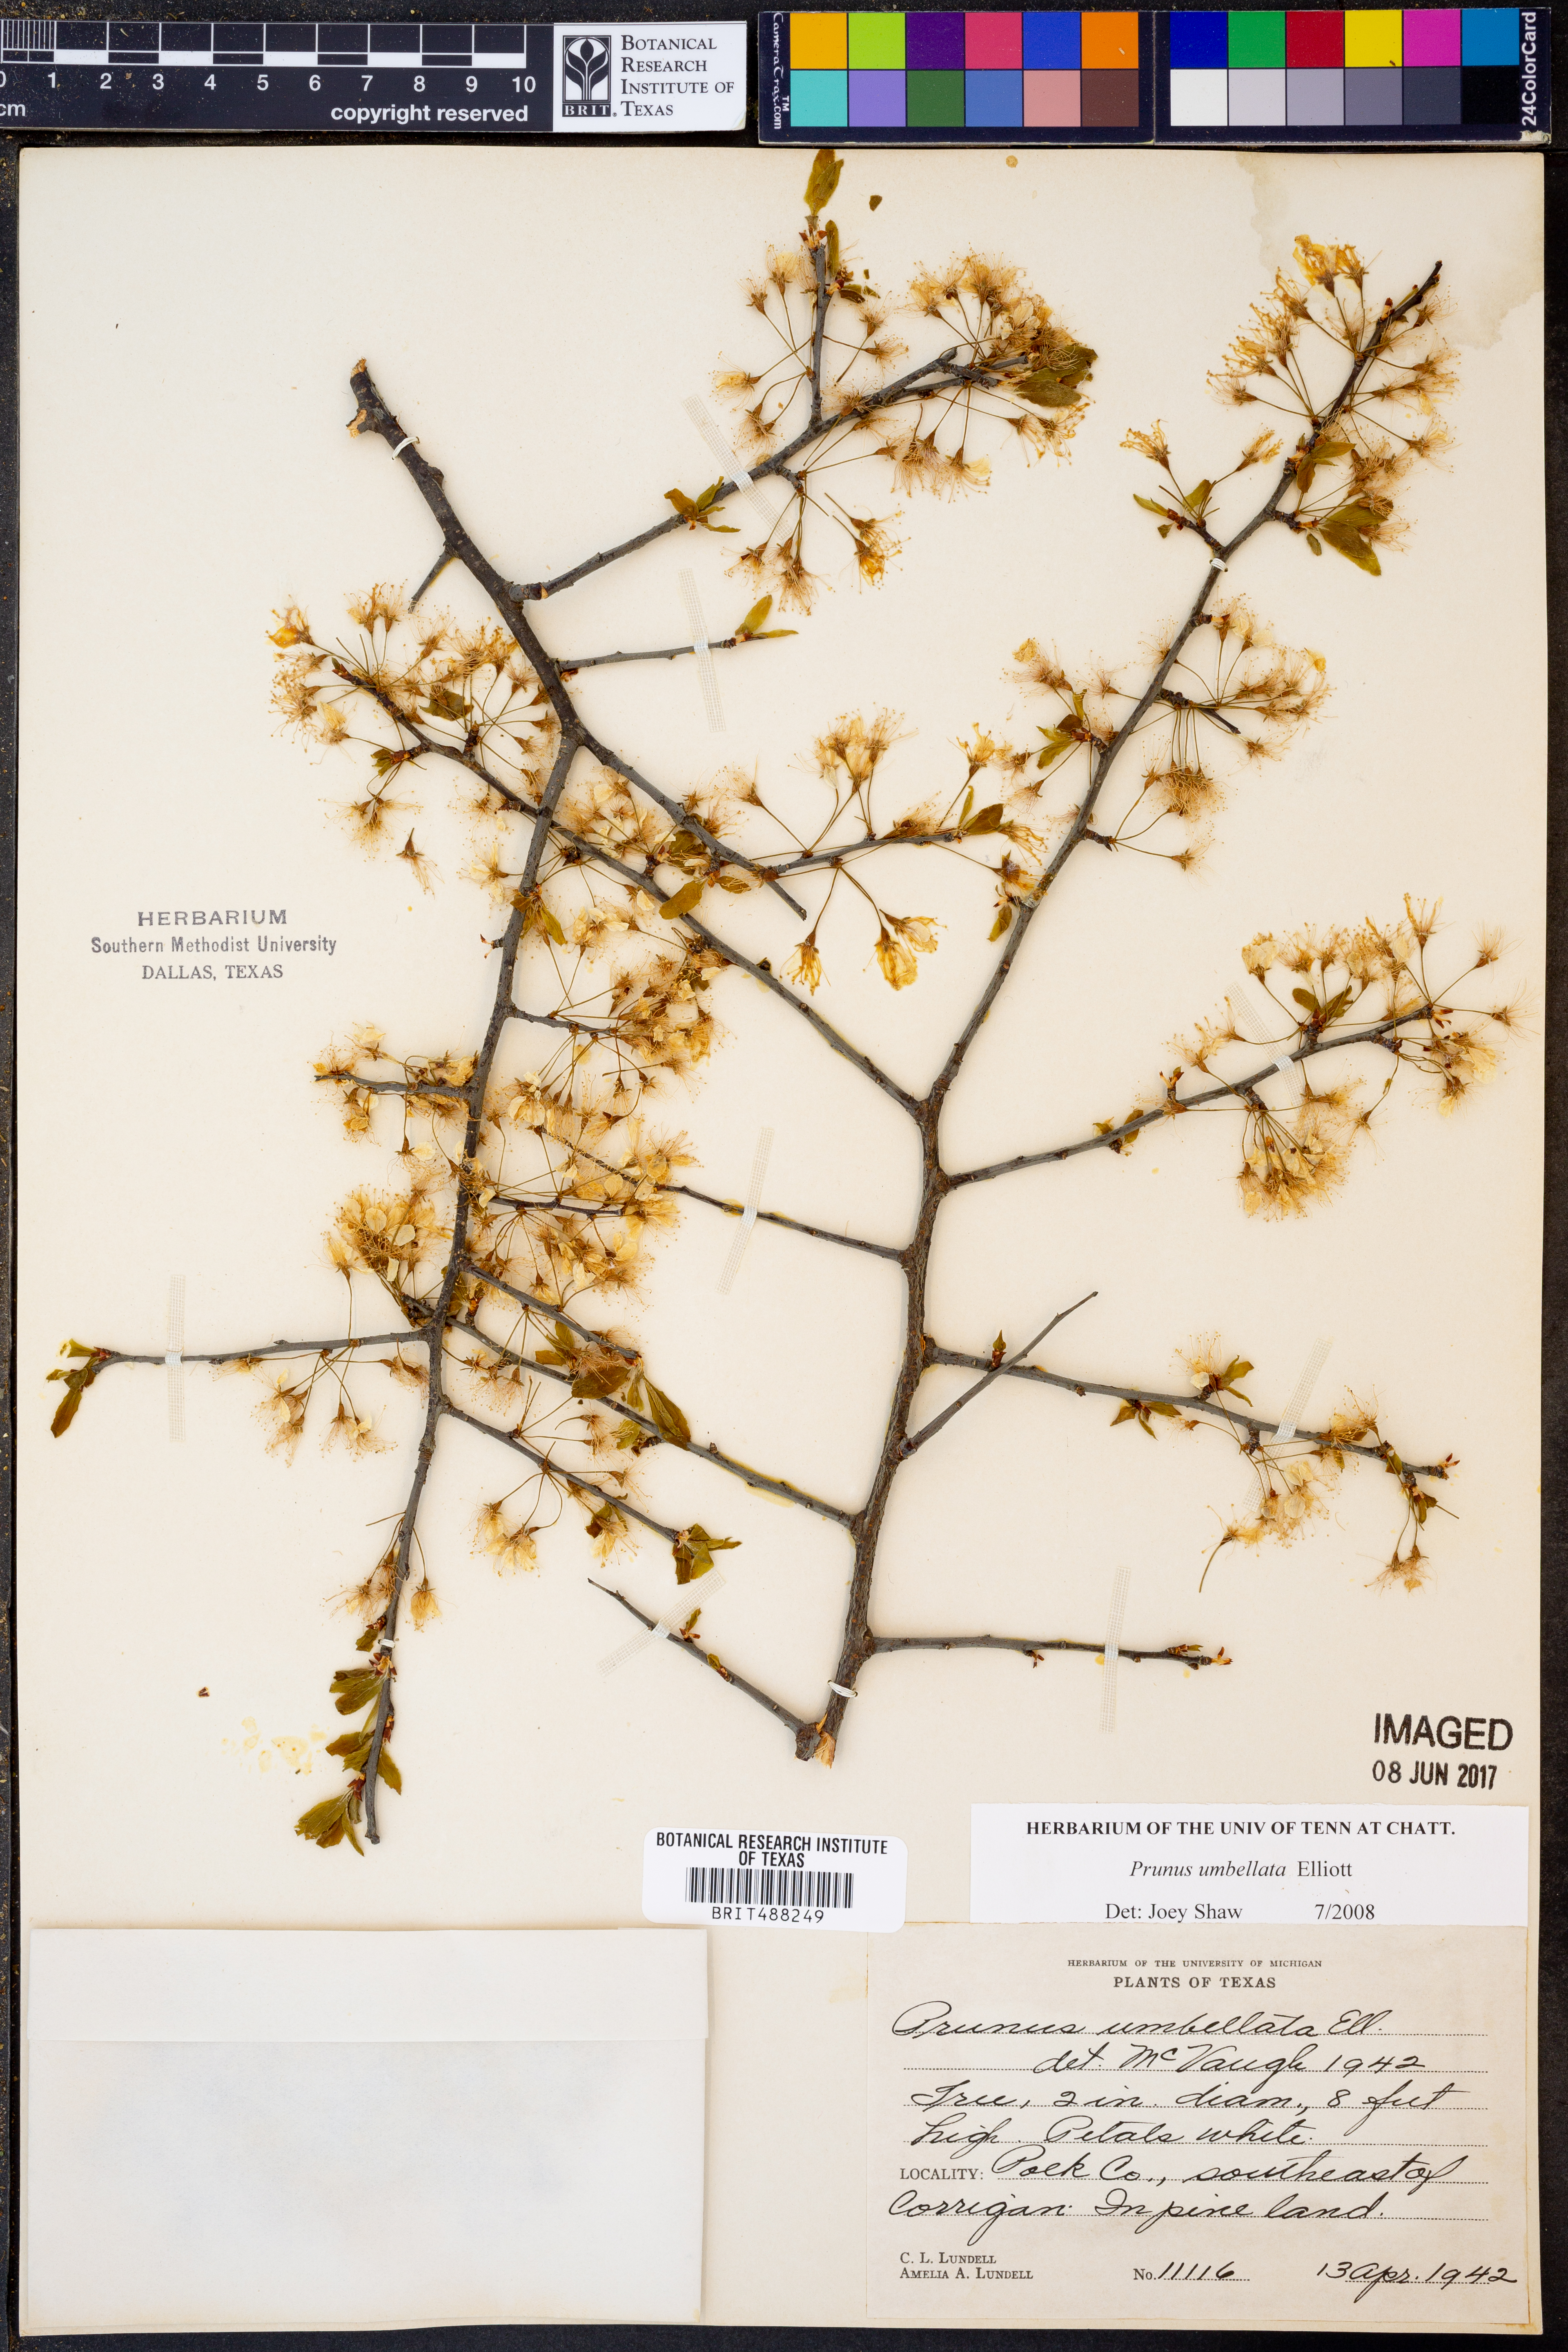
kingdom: Plantae
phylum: Tracheophyta
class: Magnoliopsida
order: Rosales
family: Rosaceae
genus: Prunus
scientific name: Prunus umbellata
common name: Allegheny plum
